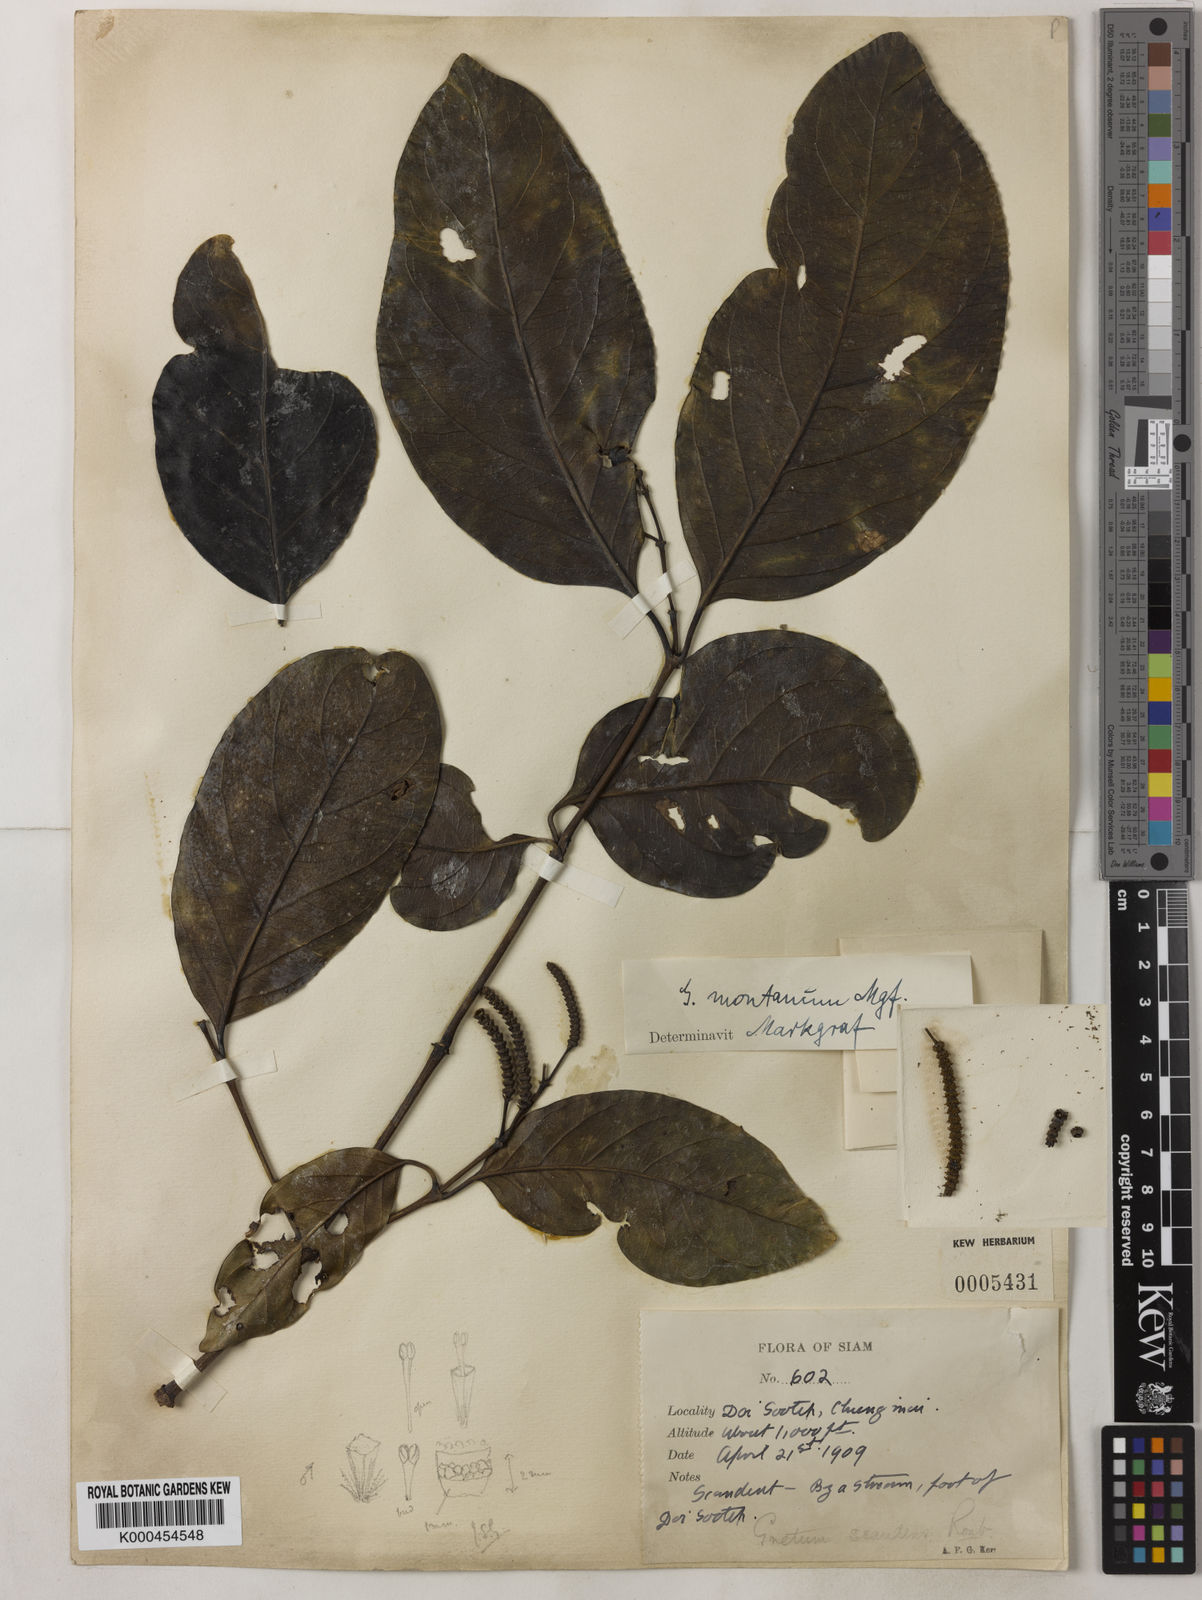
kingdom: Plantae
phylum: Tracheophyta
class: Gnetopsida
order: Gnetales
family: Gnetaceae
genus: Gnetum
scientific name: Gnetum montanum
